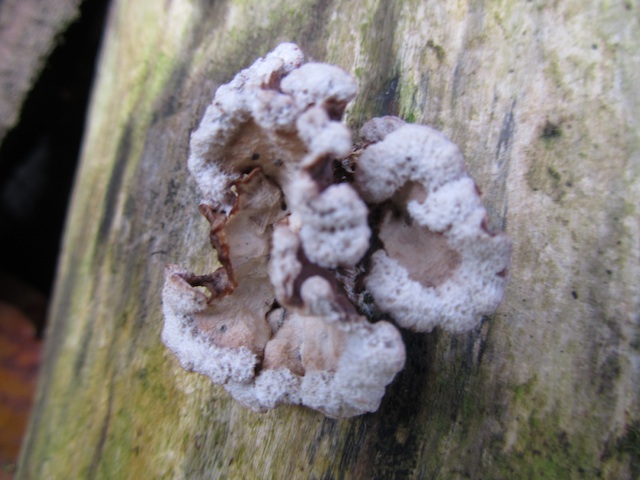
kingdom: Fungi
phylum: Basidiomycota
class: Agaricomycetes
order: Agaricales
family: Cyphellaceae
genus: Chondrostereum
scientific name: Chondrostereum purpureum
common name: purpurlædersvamp
